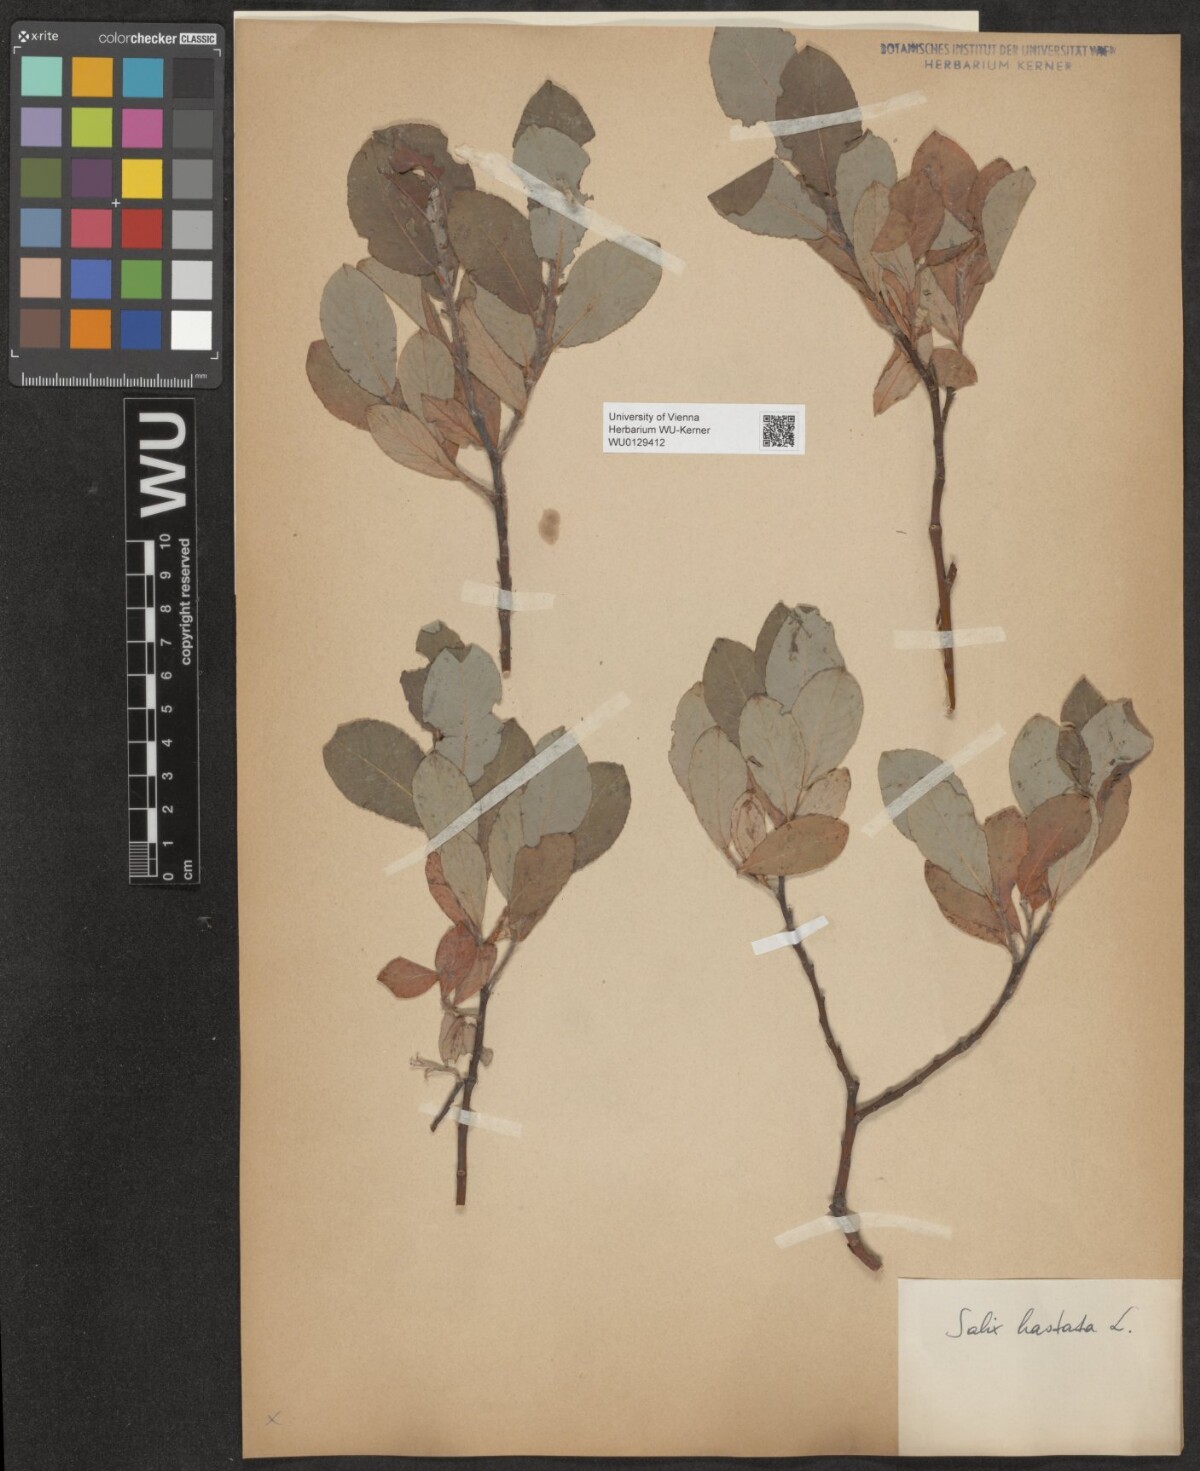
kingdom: Plantae
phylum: Tracheophyta
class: Magnoliopsida
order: Malpighiales
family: Salicaceae
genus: Salix
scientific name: Salix hastata
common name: Halberd willow
